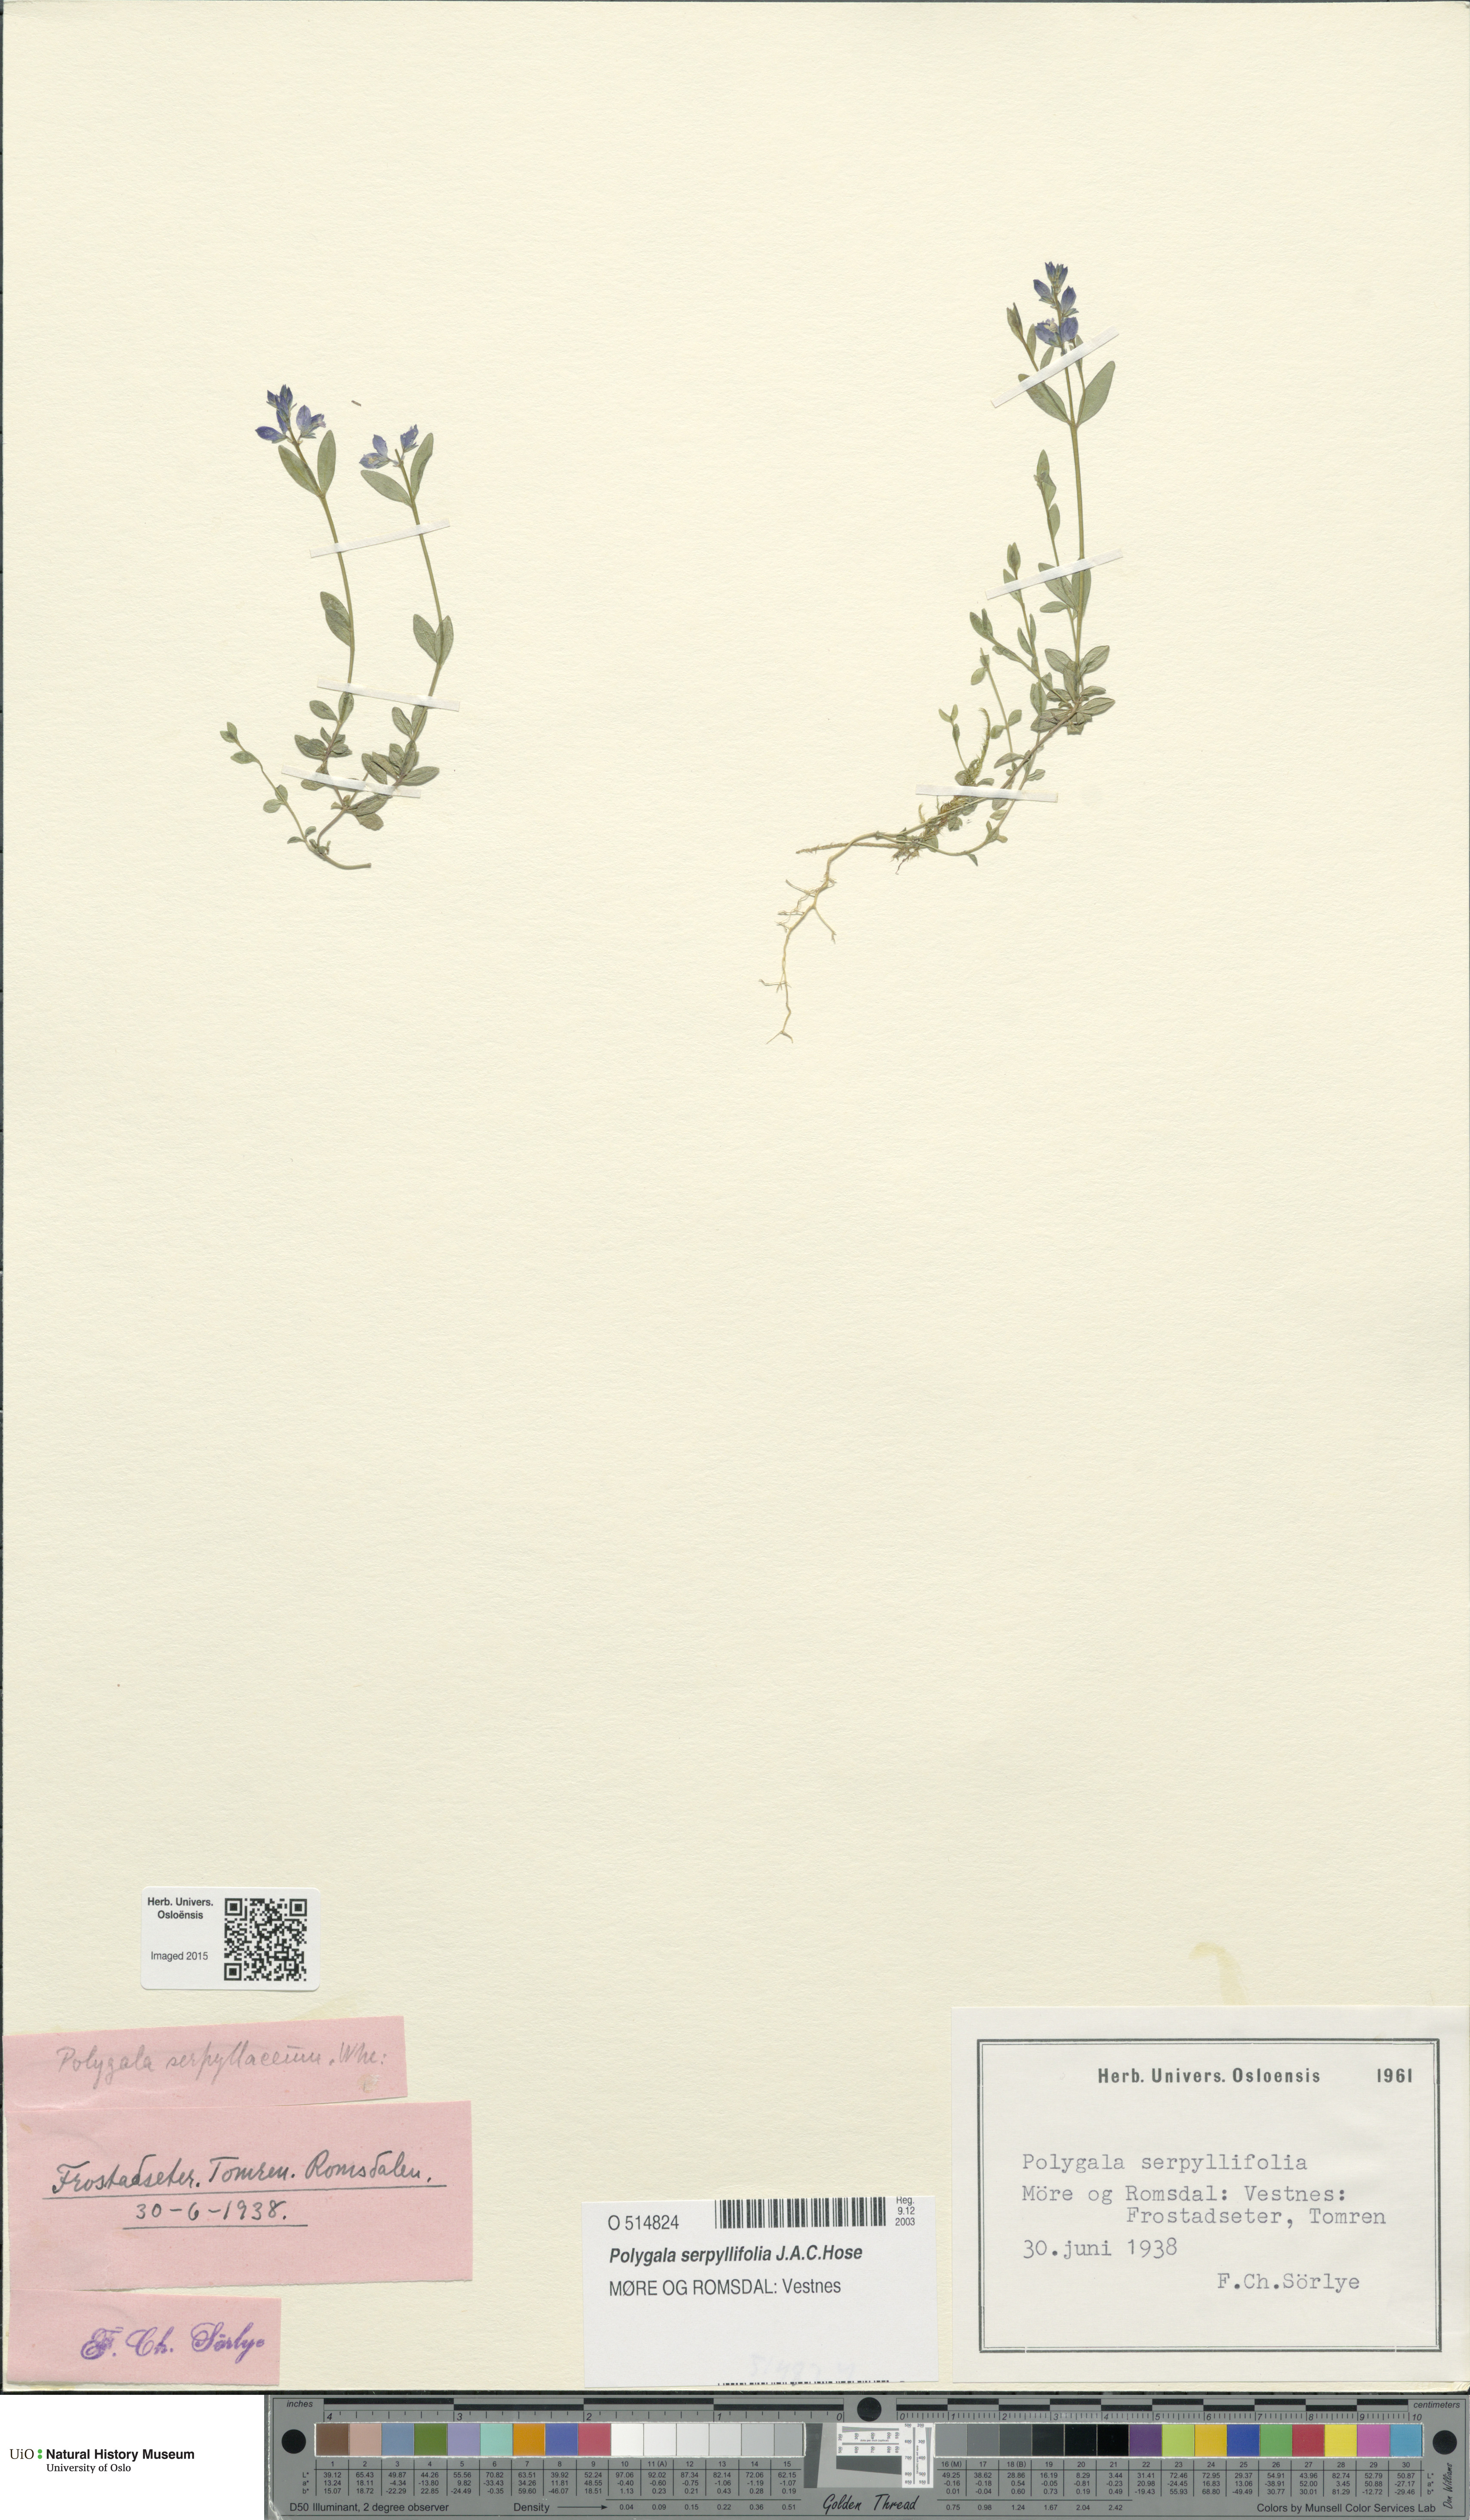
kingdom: Plantae
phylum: Tracheophyta
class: Magnoliopsida
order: Fabales
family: Polygalaceae
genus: Polygala
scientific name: Polygala serpyllifolia
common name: Heath milkwort
